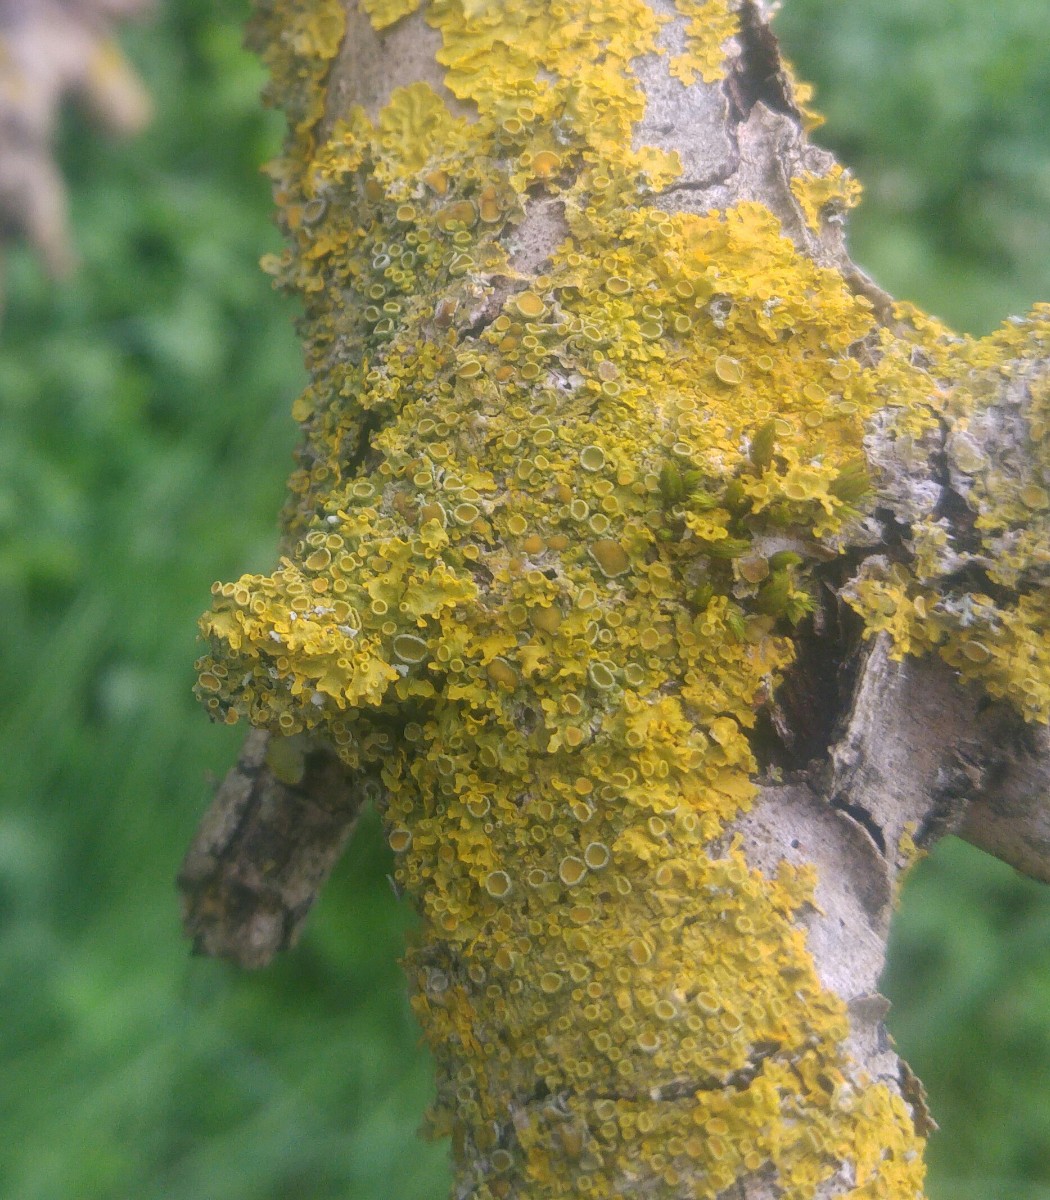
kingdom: Fungi
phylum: Ascomycota
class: Lecanoromycetes
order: Teloschistales
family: Teloschistaceae
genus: Xanthoria
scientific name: Xanthoria parietina
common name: almindelig væggelav
